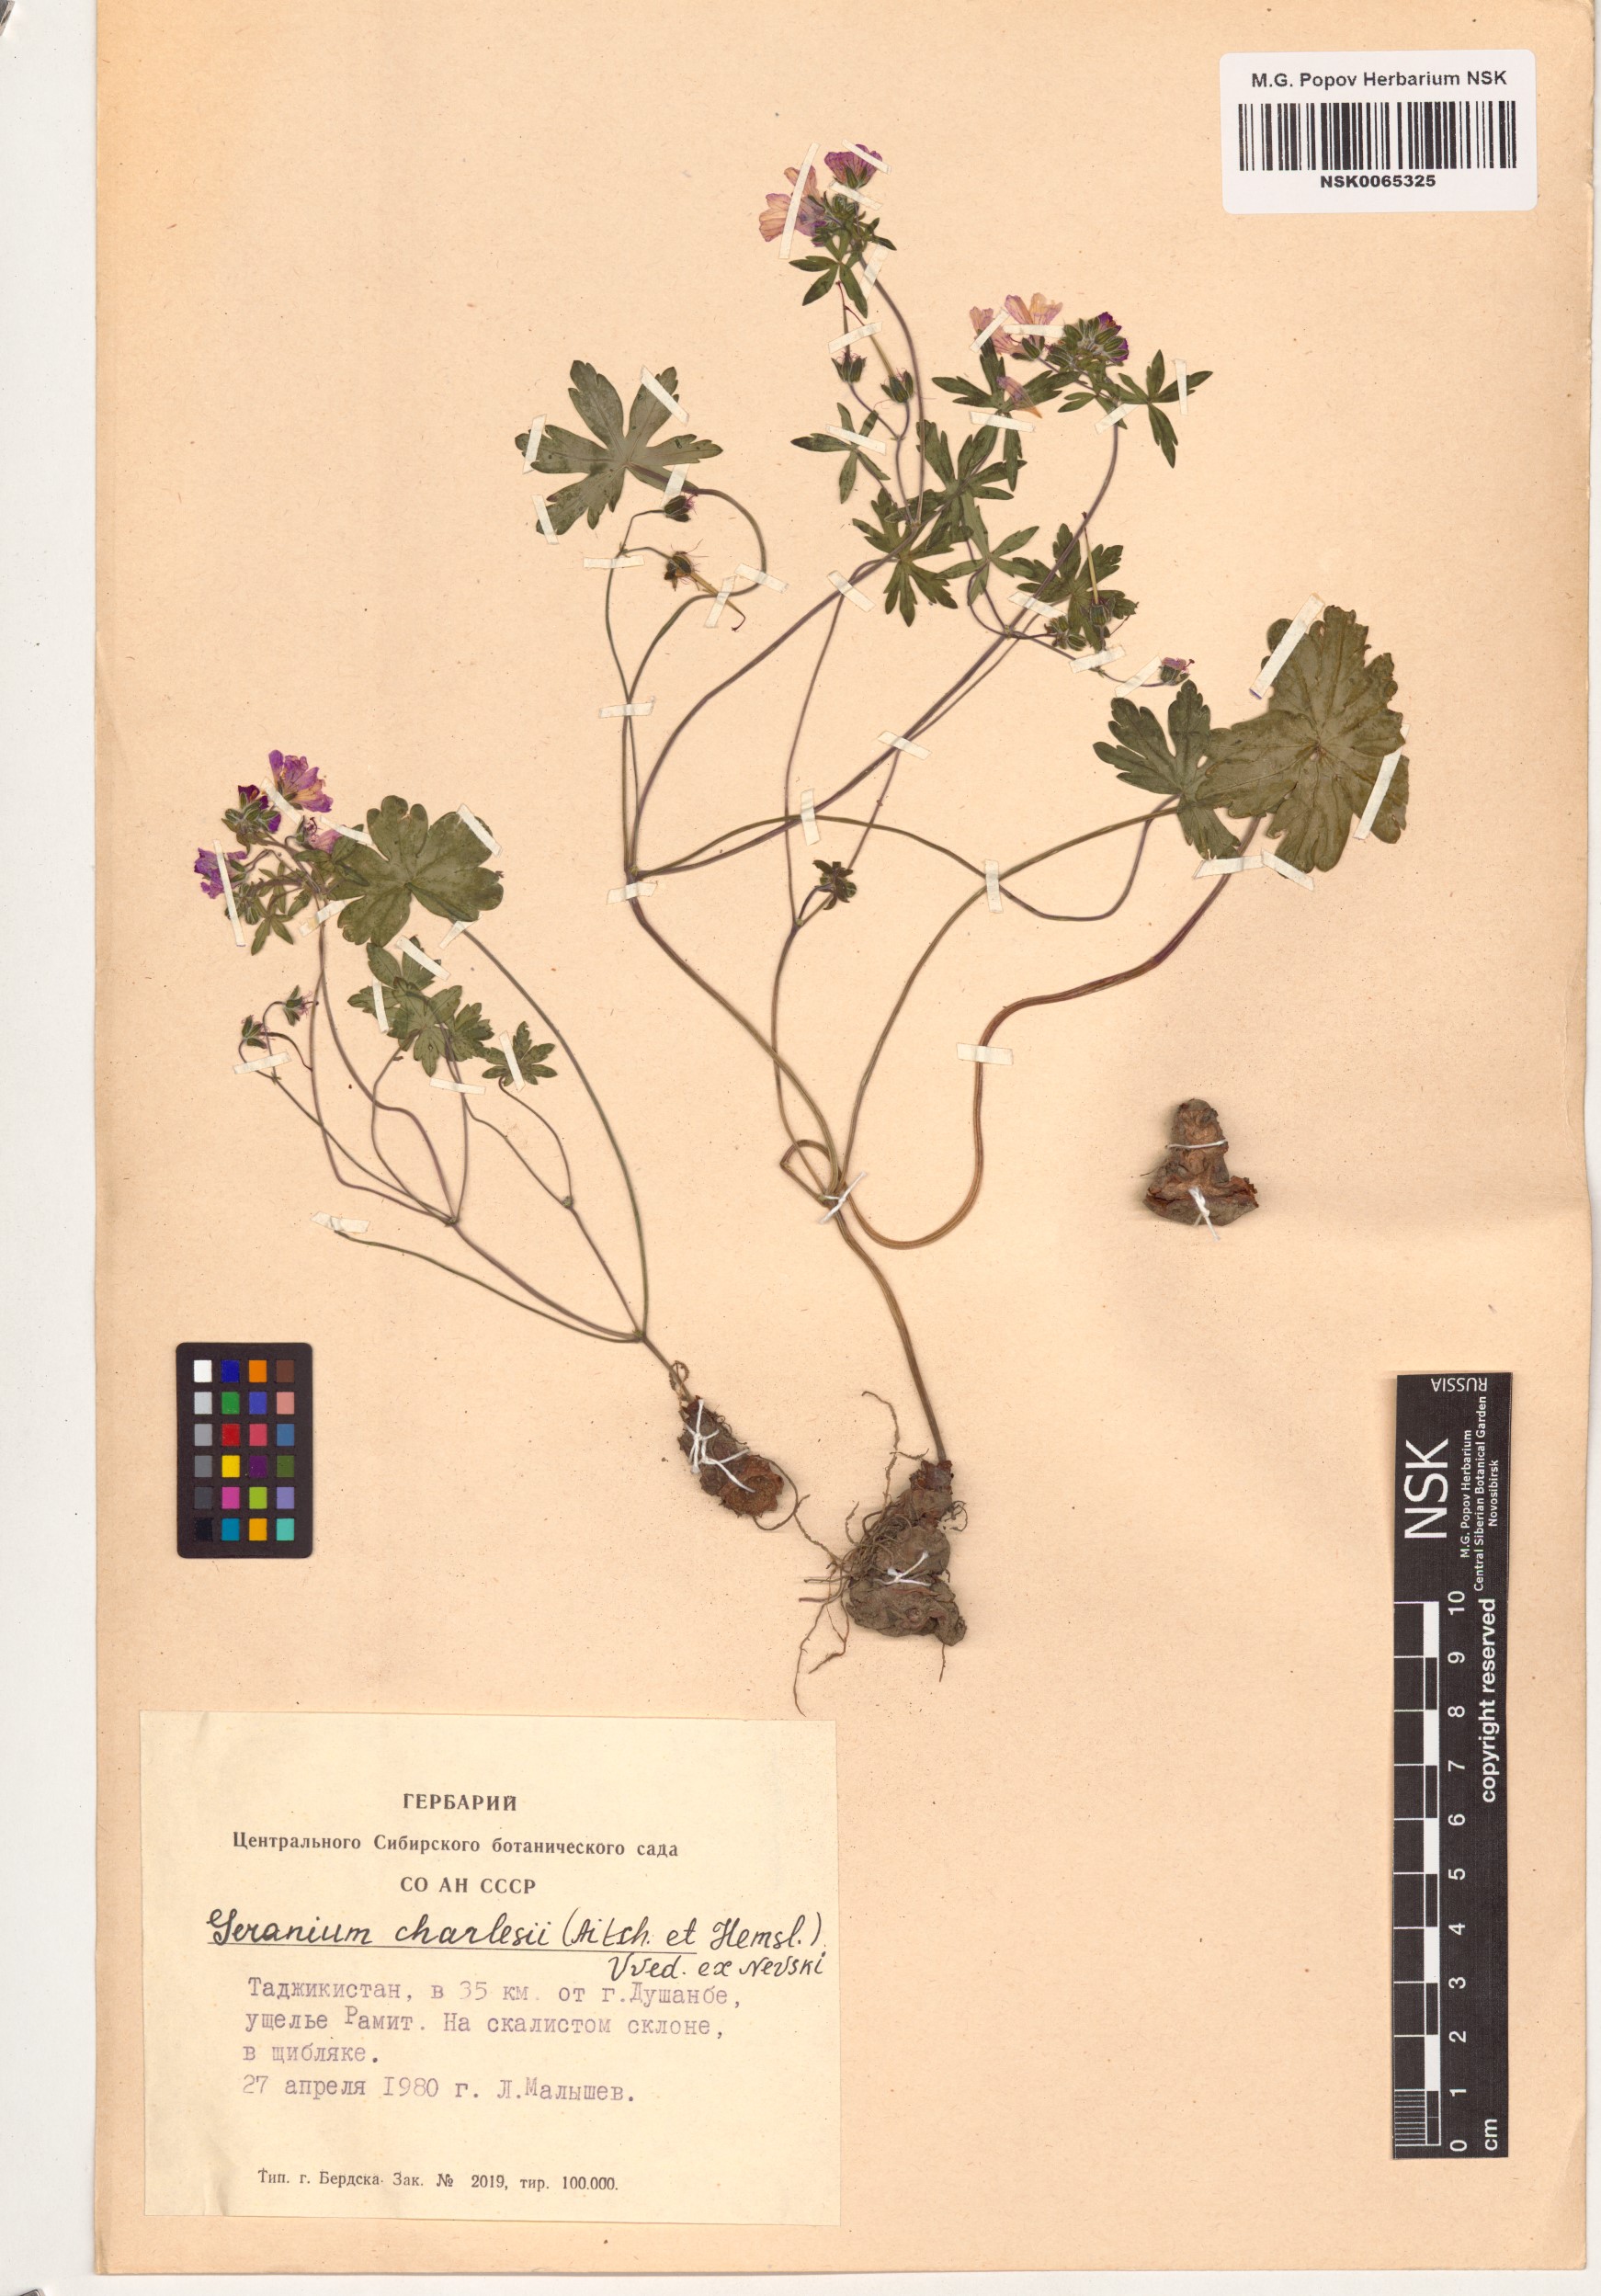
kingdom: Plantae
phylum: Tracheophyta
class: Magnoliopsida
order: Geraniales
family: Geraniaceae
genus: Geranium
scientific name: Geranium kotschyi
